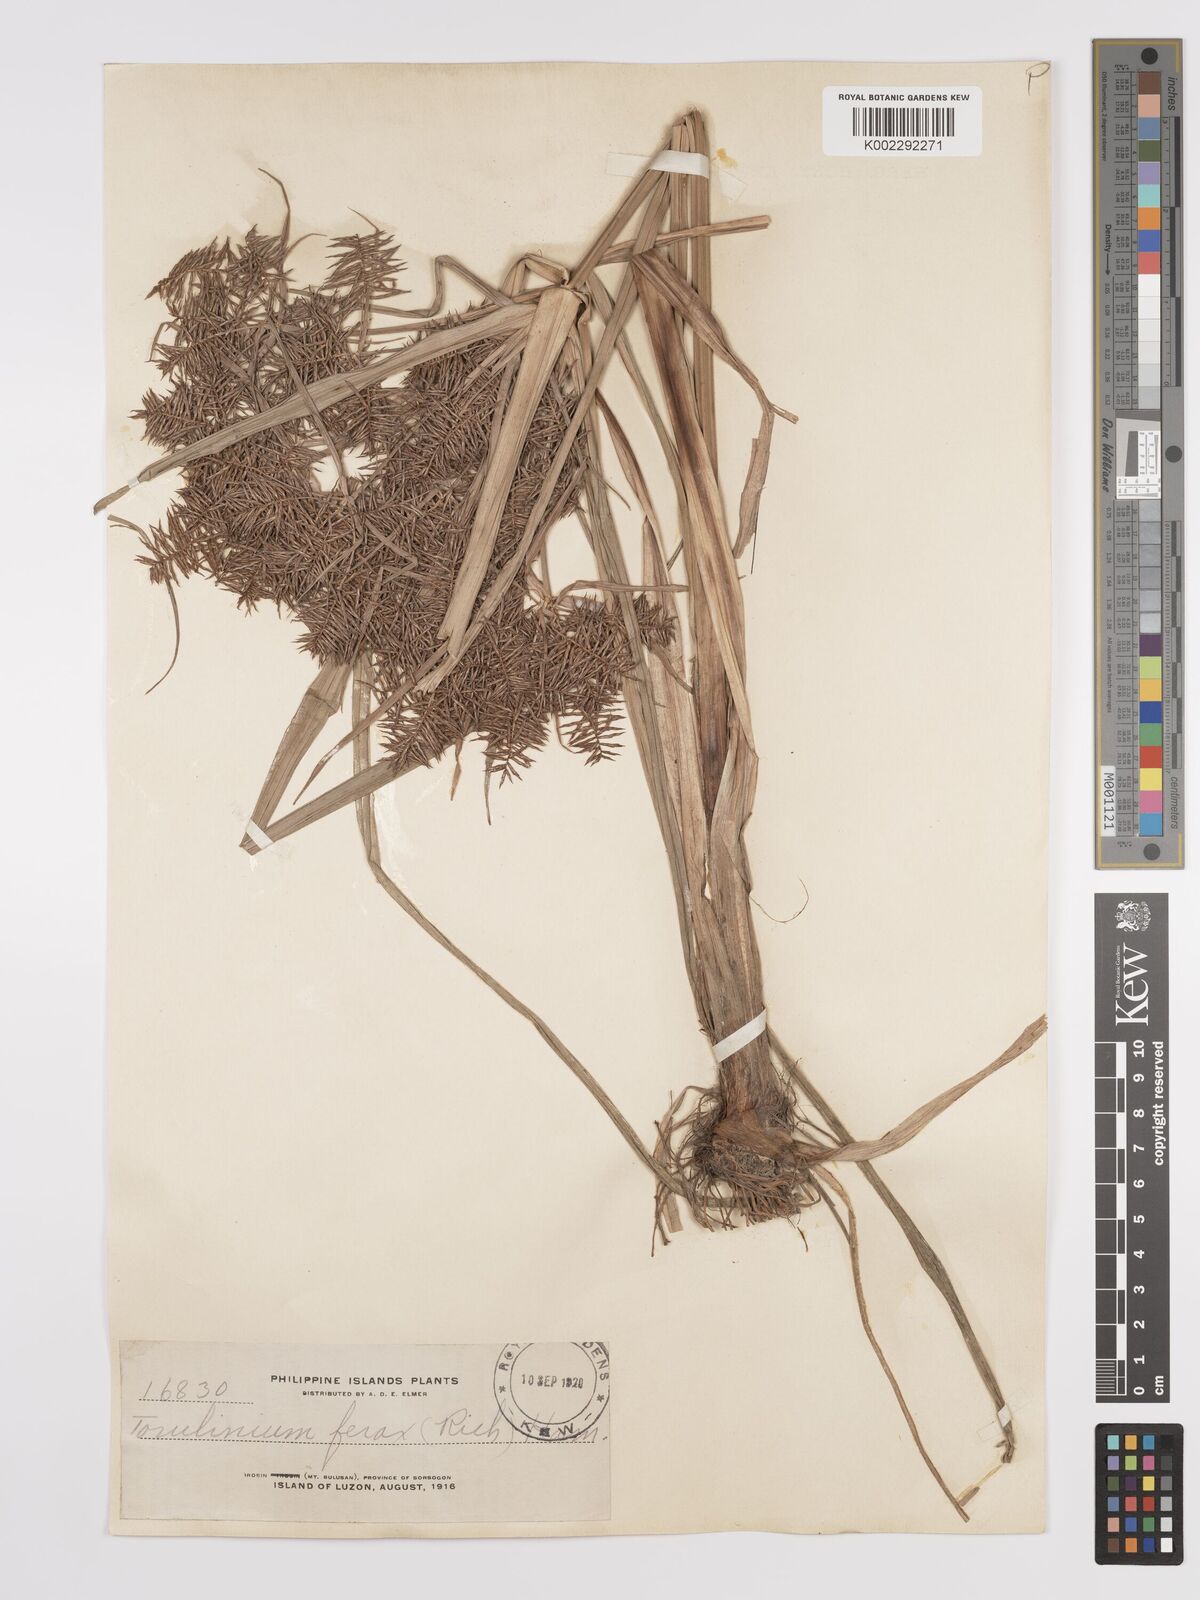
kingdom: Plantae
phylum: Tracheophyta
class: Liliopsida
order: Poales
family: Cyperaceae
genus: Cyperus
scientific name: Cyperus odoratus
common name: Fragrant flatsedge
